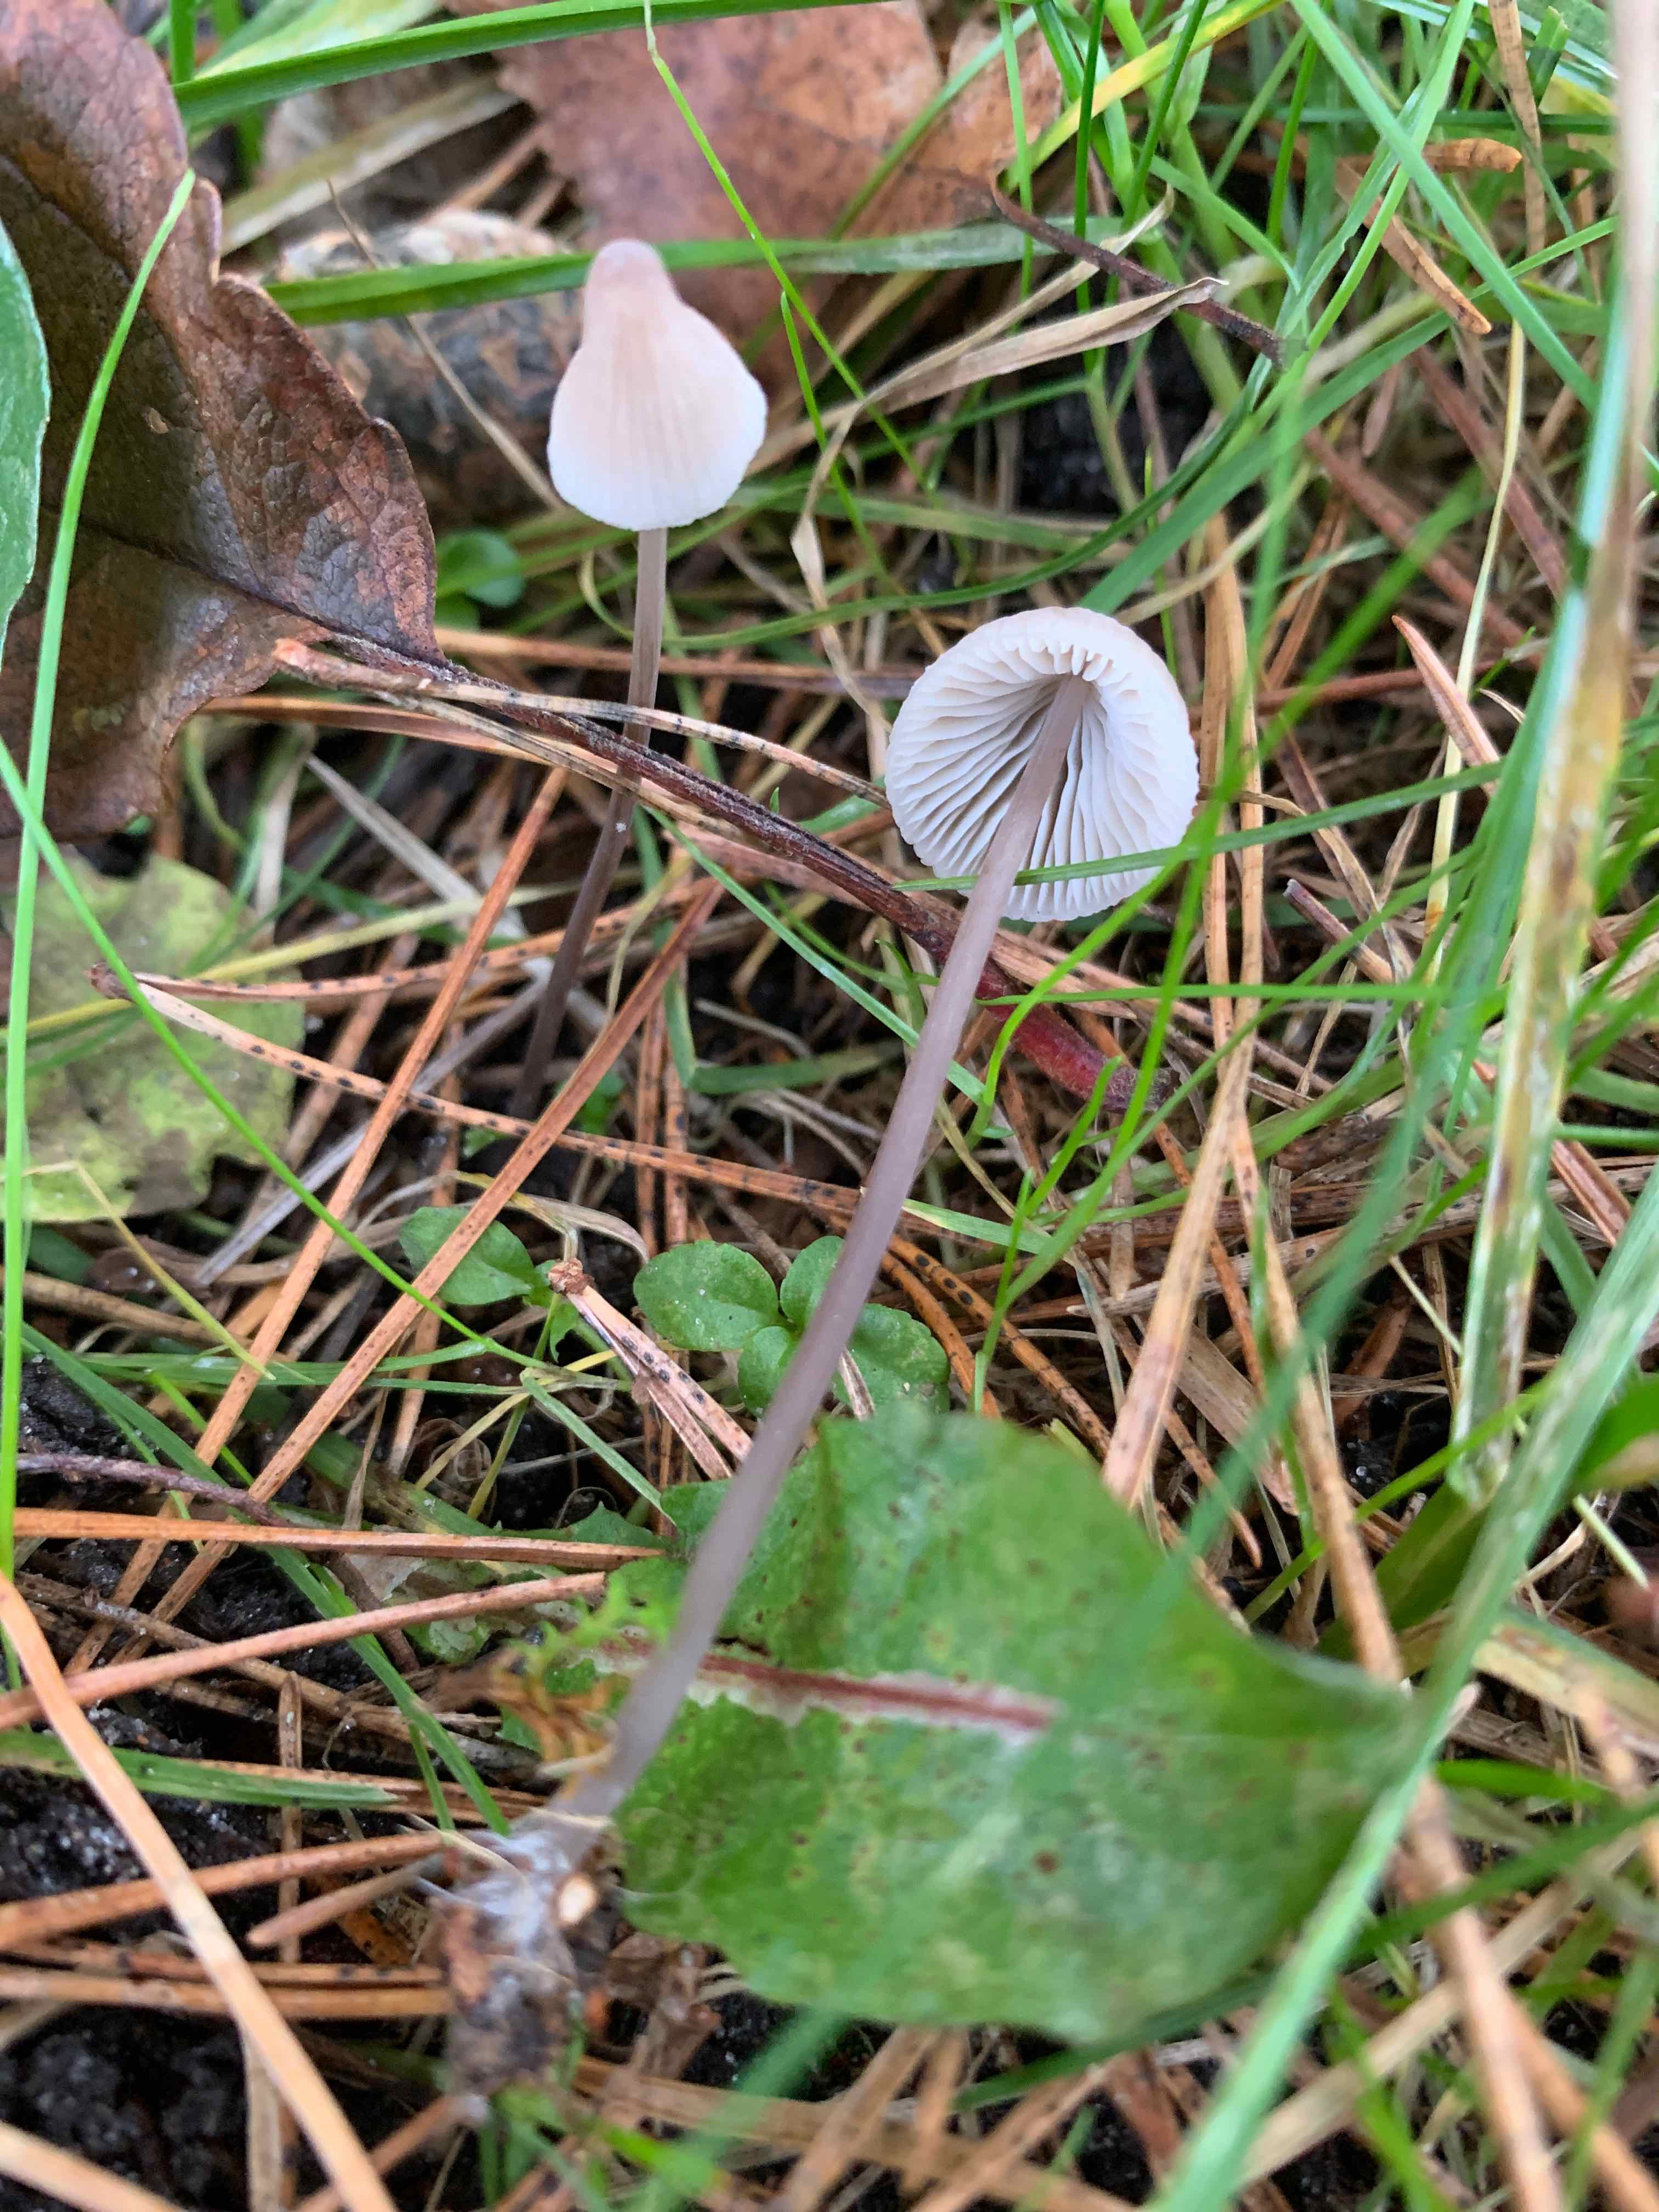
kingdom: Fungi
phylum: Basidiomycota
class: Agaricomycetes
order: Agaricales
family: Mycenaceae
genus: Mycena
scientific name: Mycena vitilis
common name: blankstokket huesvamp
